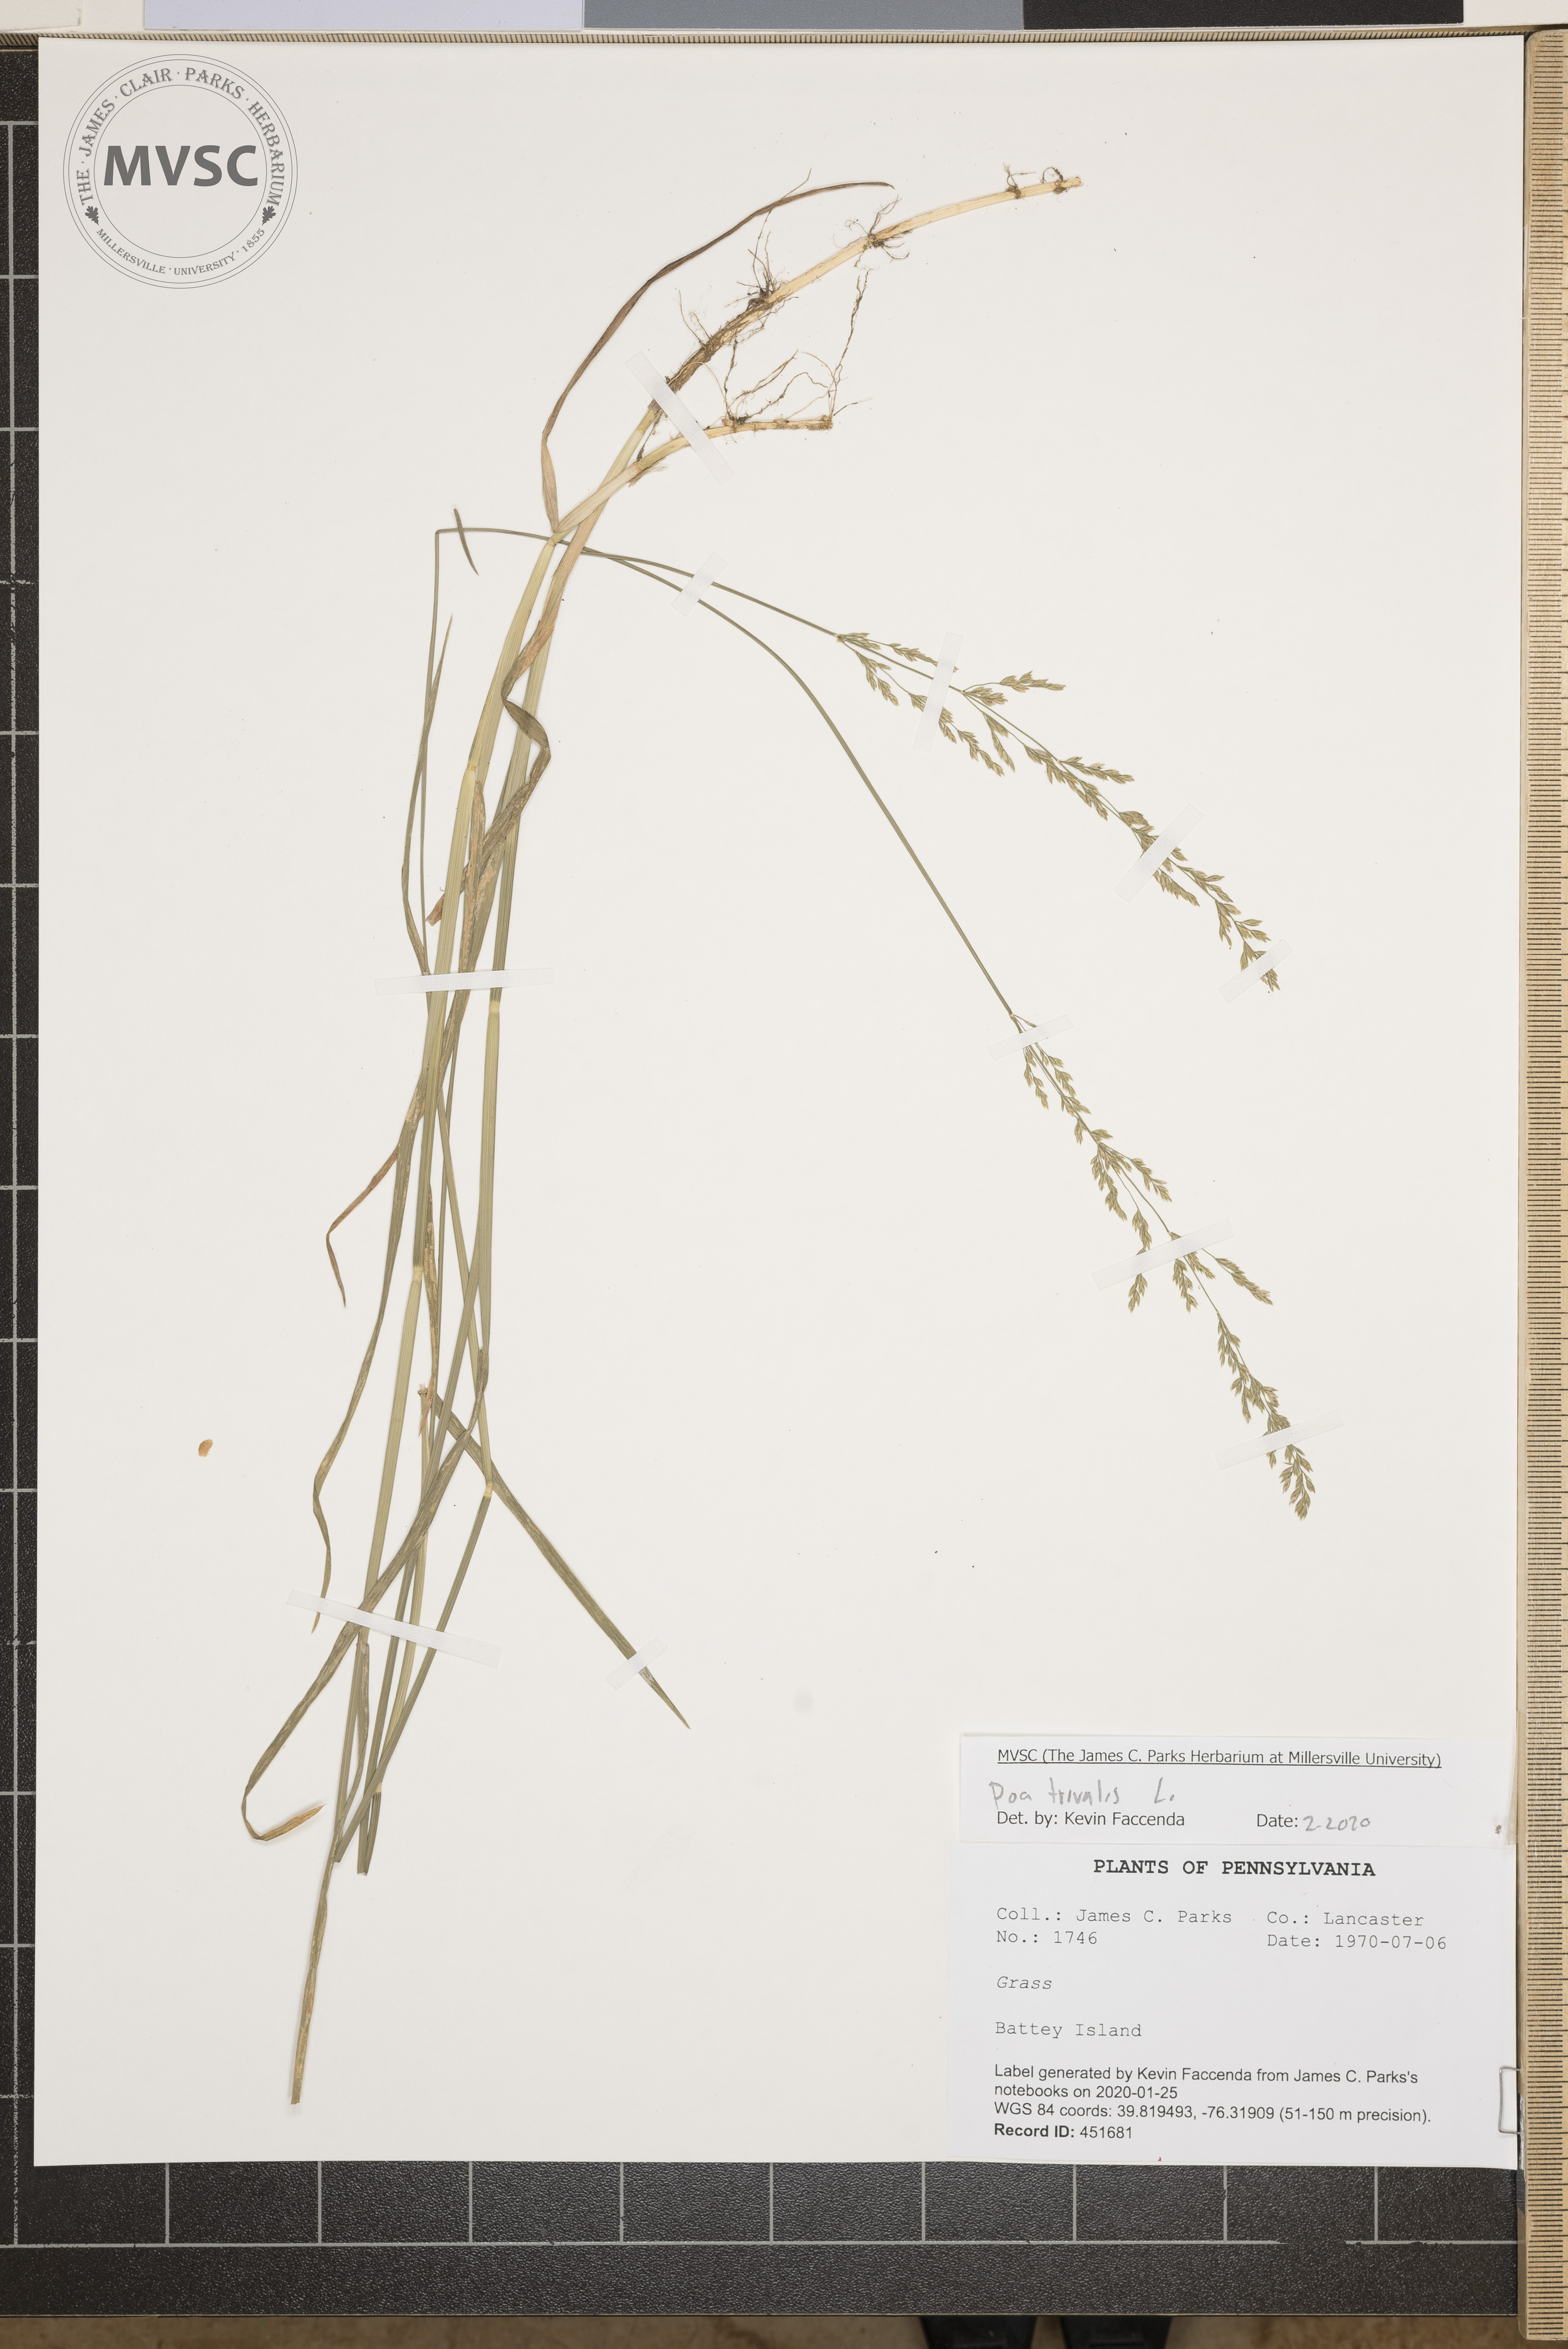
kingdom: Plantae
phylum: Tracheophyta
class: Liliopsida
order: Poales
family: Poaceae
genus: Poa
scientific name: Poa trivialis
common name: Rough bluegrass
